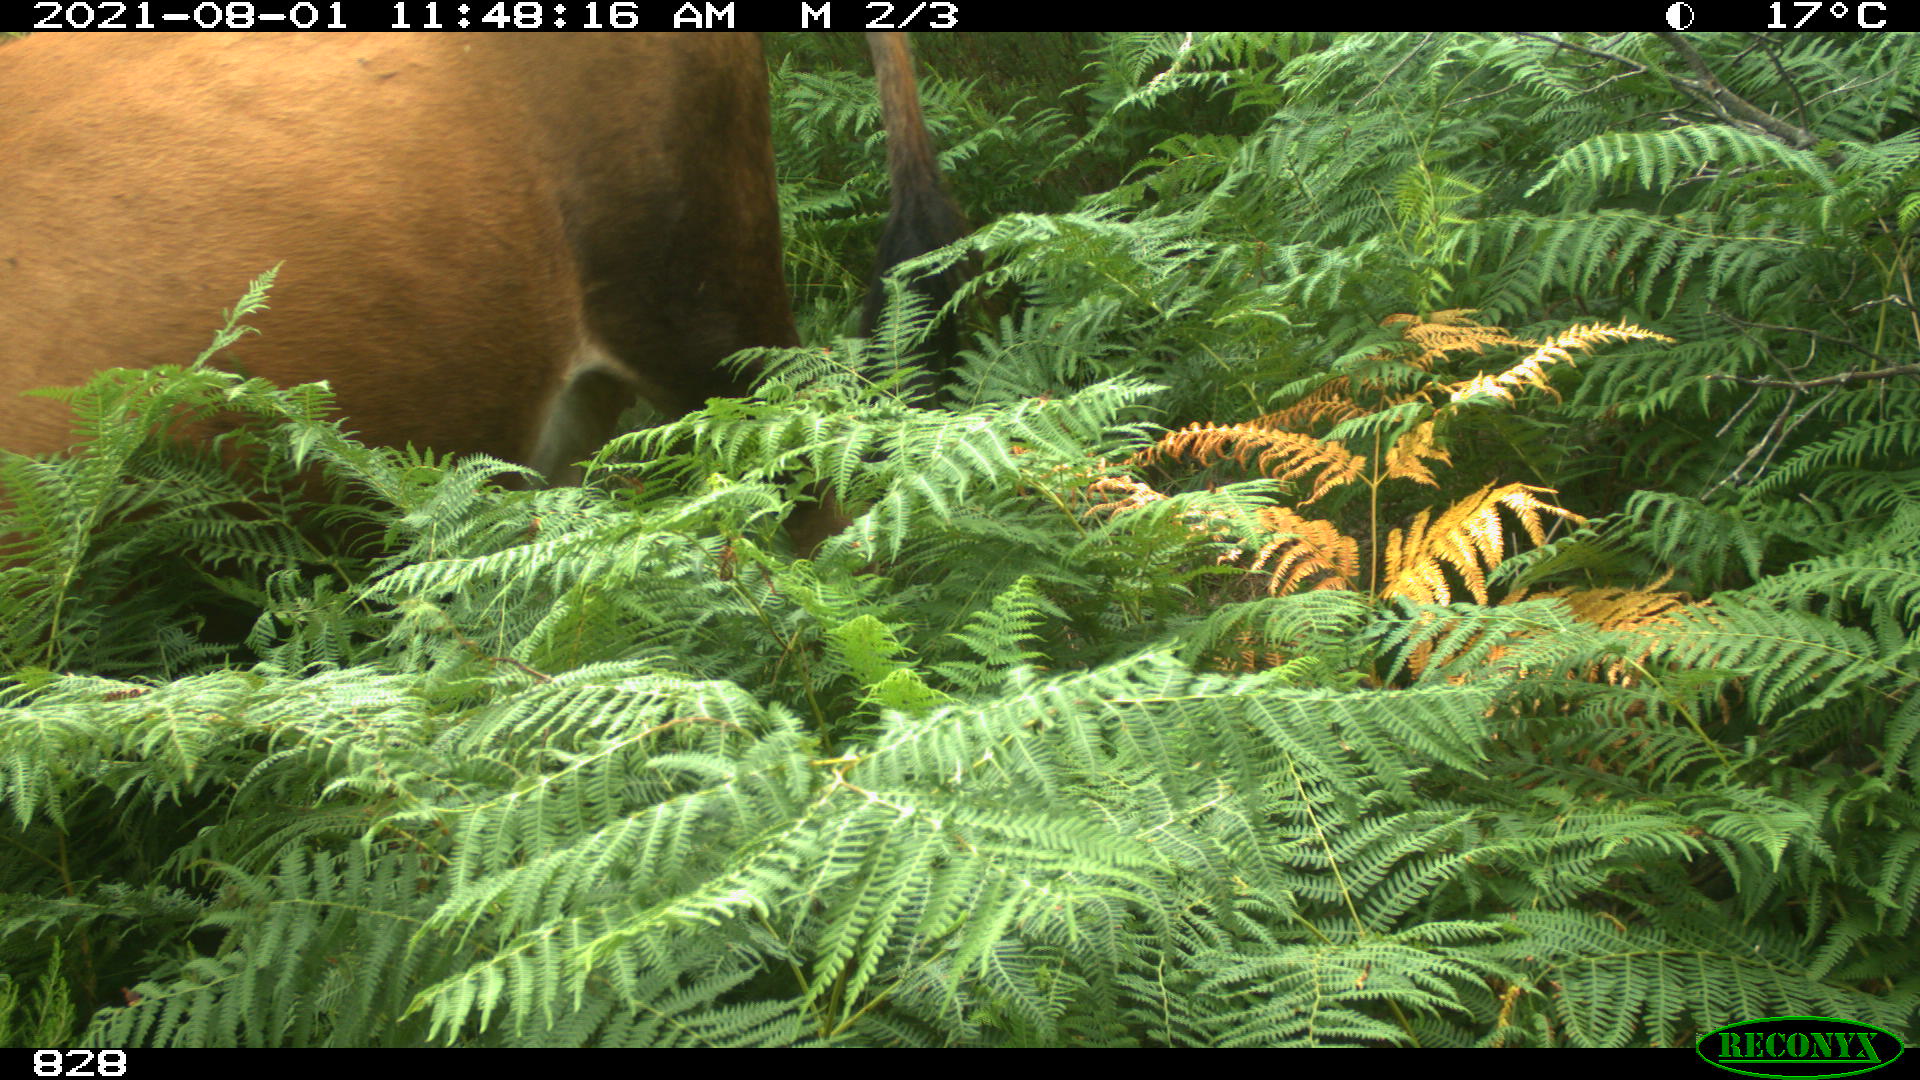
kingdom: Animalia
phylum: Chordata
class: Mammalia
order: Artiodactyla
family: Bovidae
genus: Bos
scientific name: Bos taurus
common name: Domesticated cattle
